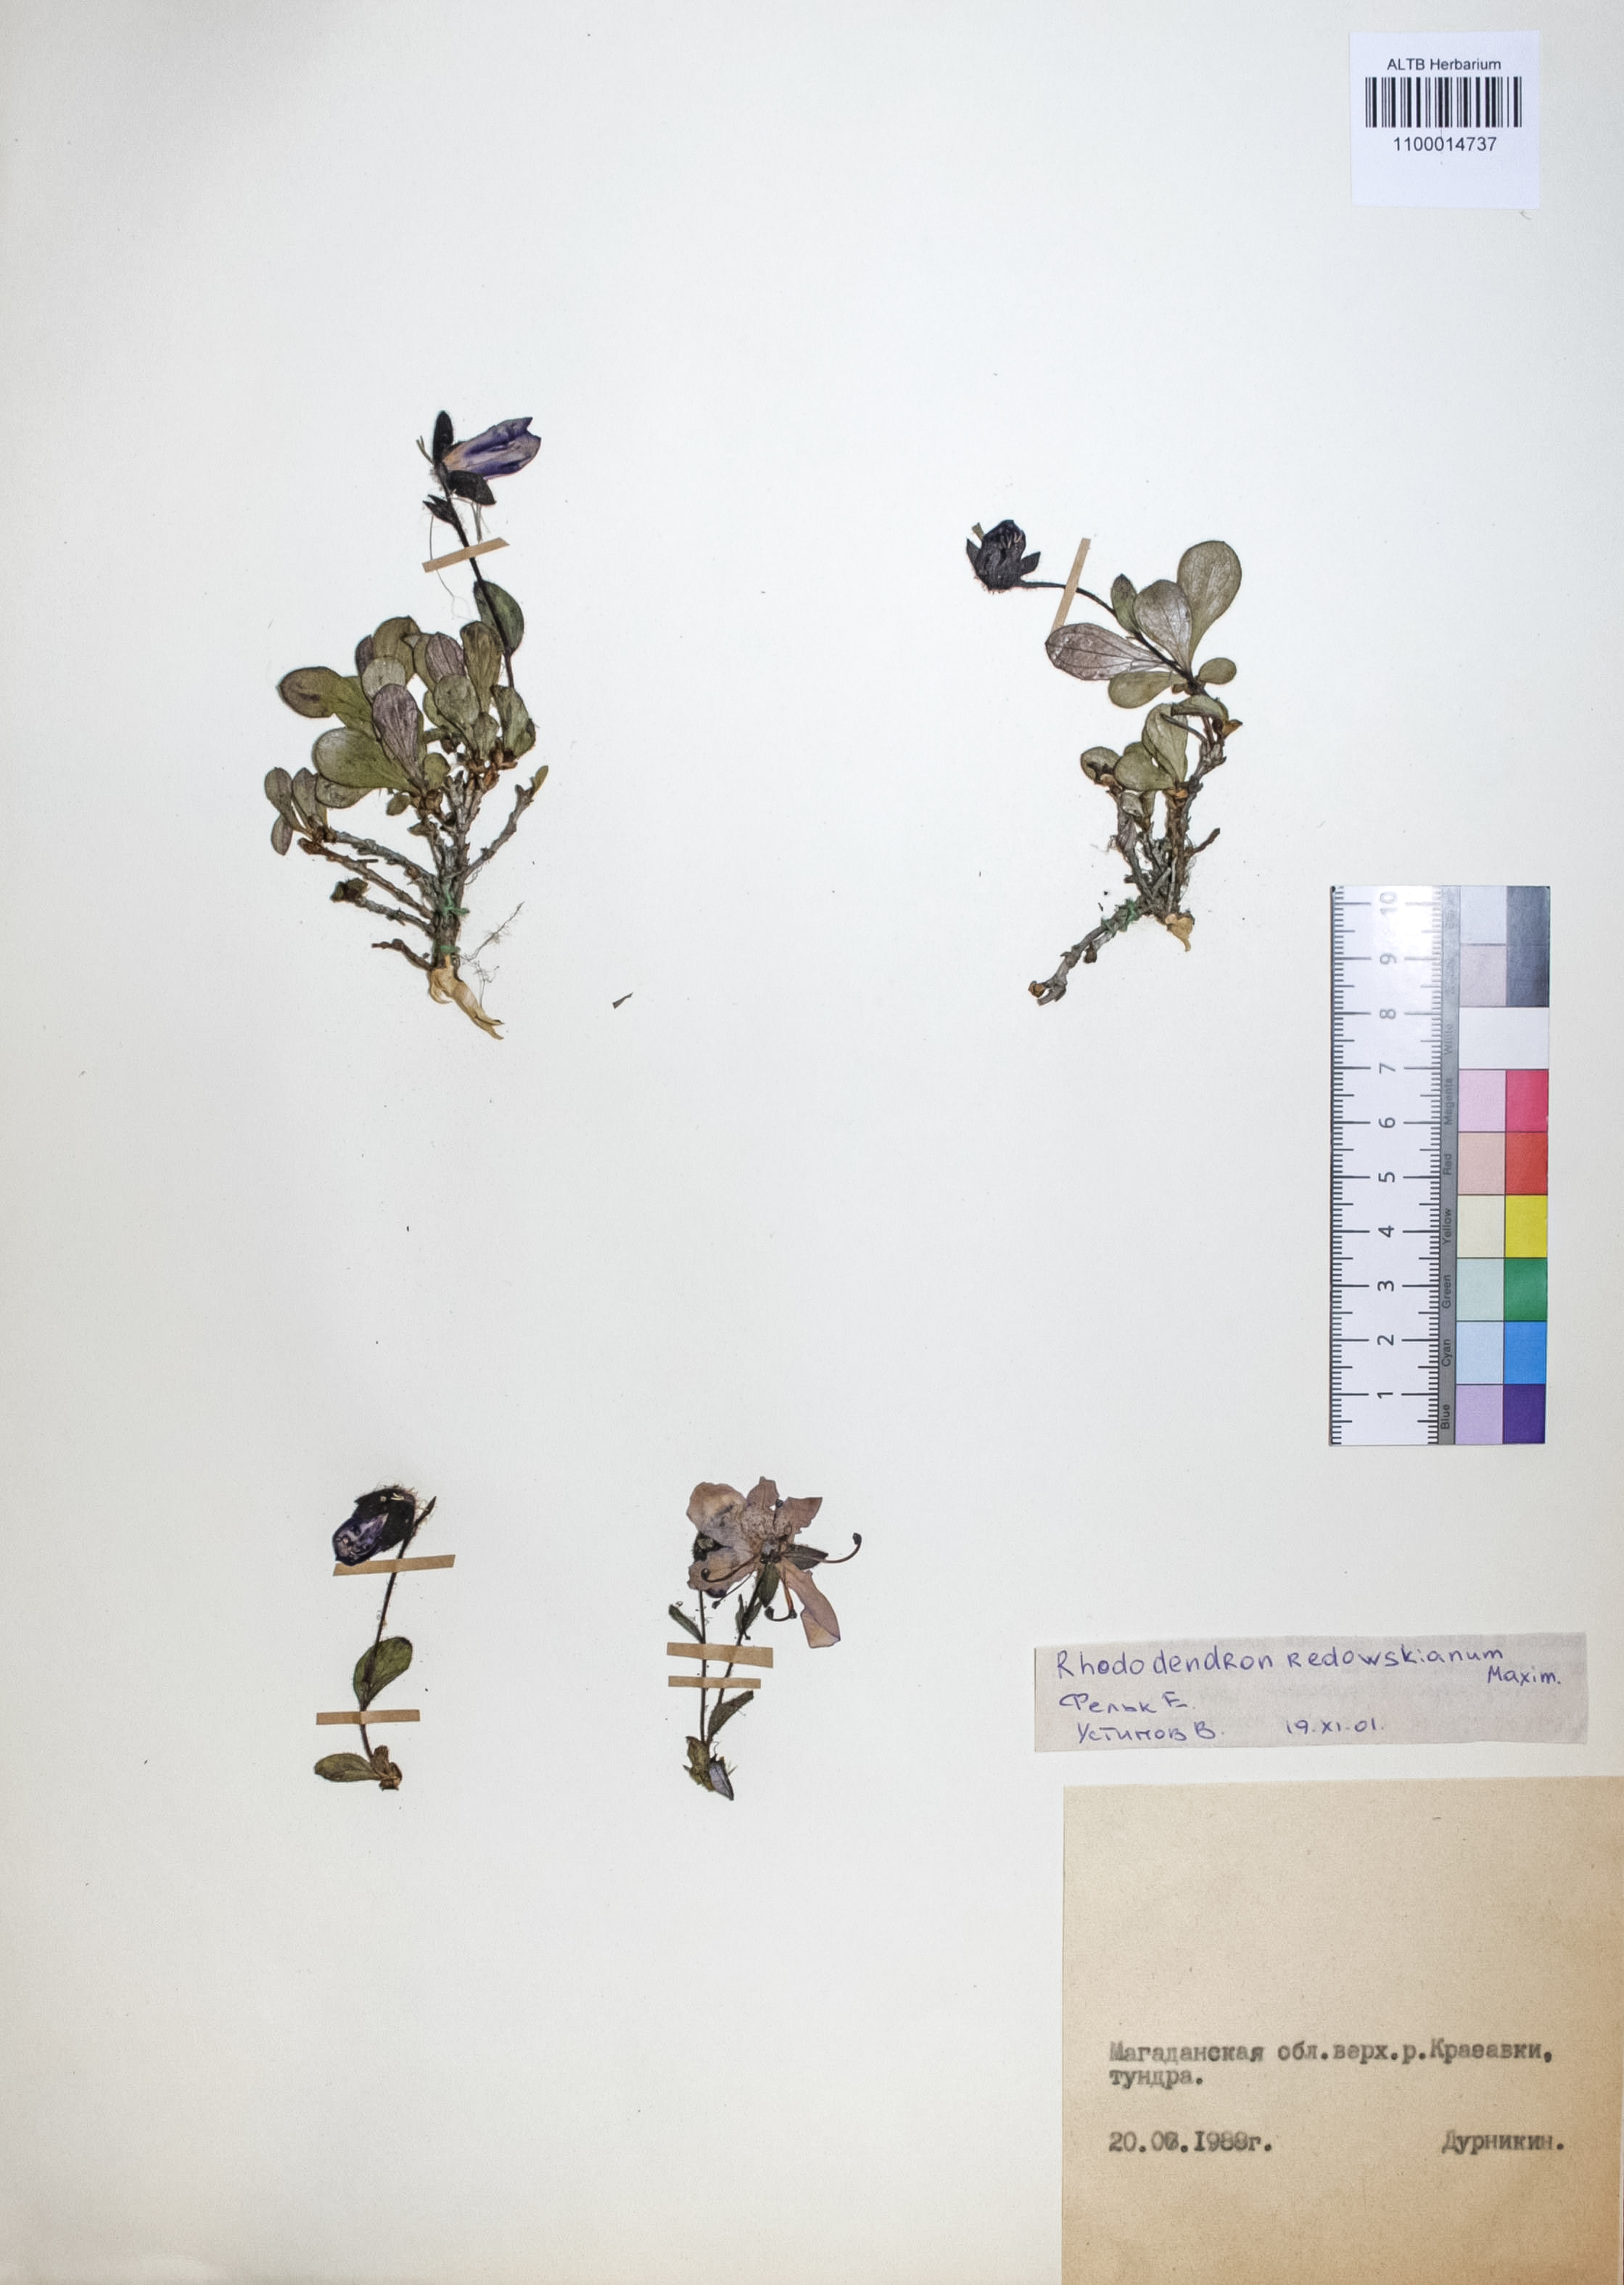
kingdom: Plantae
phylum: Tracheophyta
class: Magnoliopsida
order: Ericales
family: Ericaceae
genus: Rhododendron
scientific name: Rhododendron redowskianum
